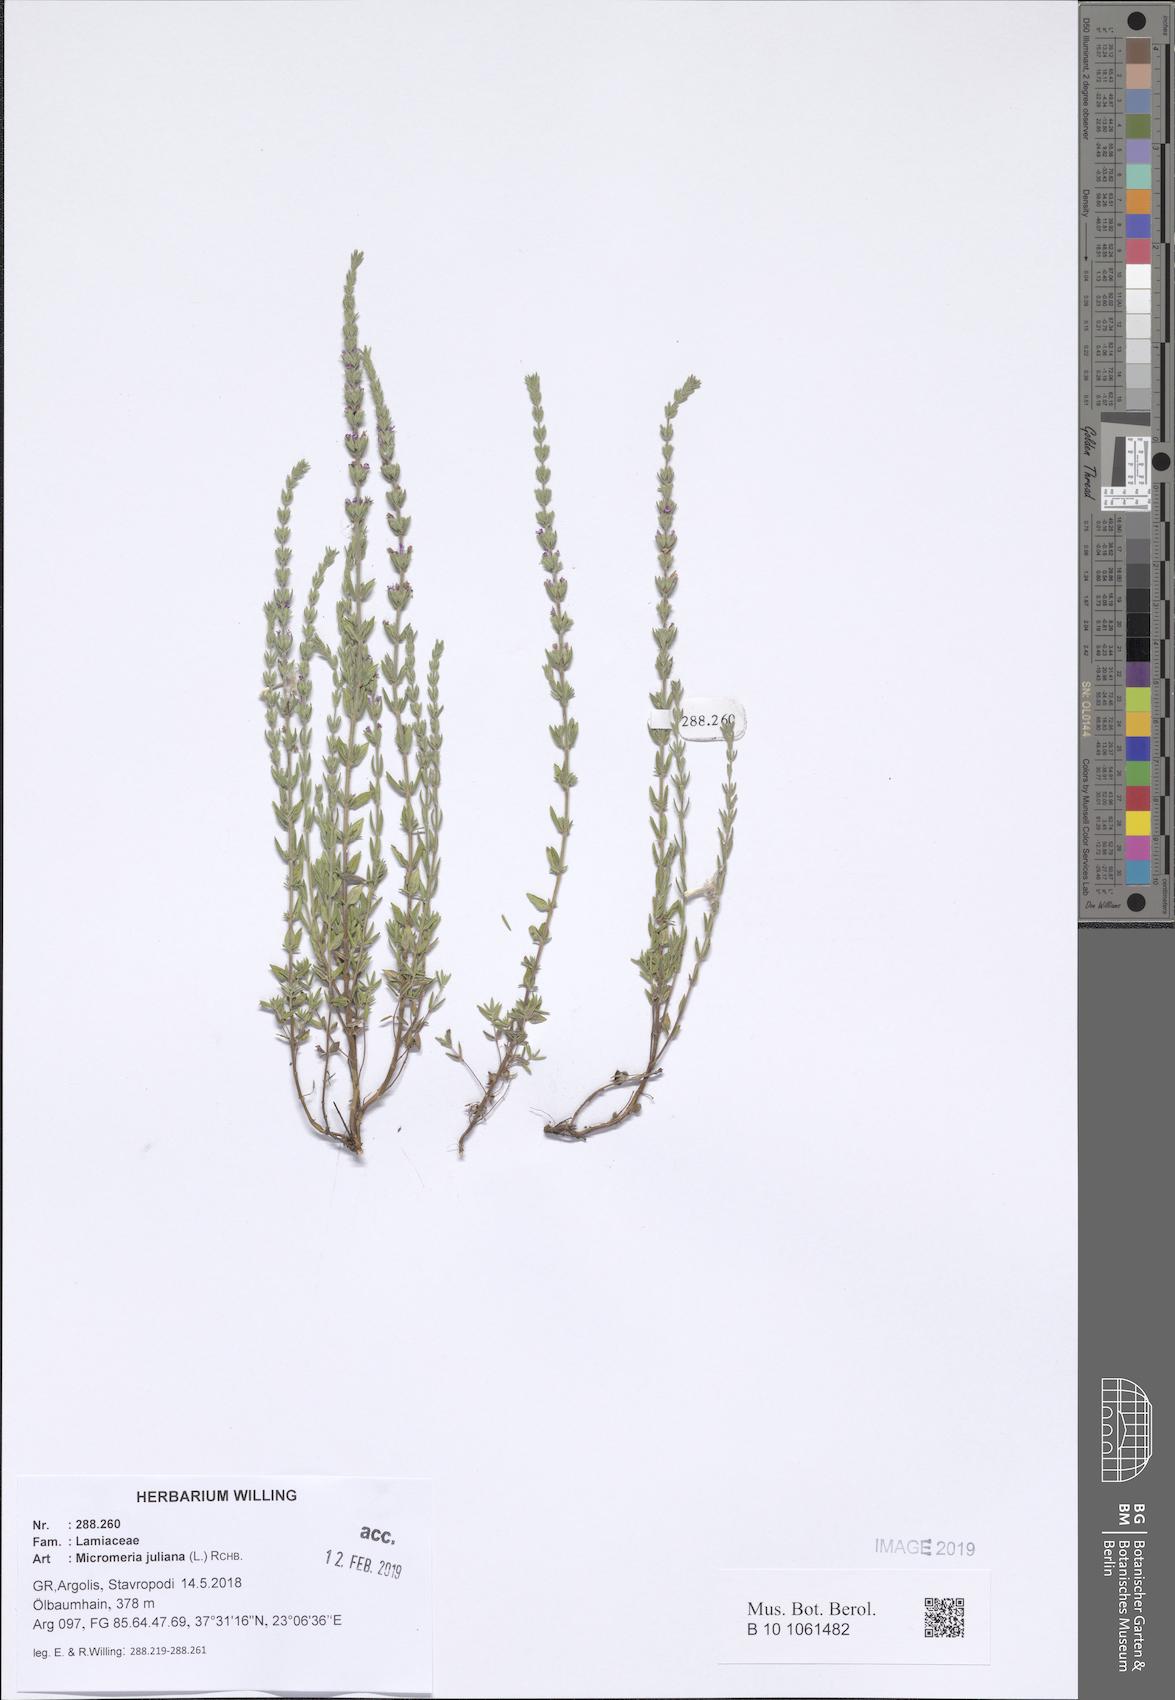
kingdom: Plantae
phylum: Tracheophyta
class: Magnoliopsida
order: Lamiales
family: Lamiaceae
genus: Micromeria
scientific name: Micromeria juliana
